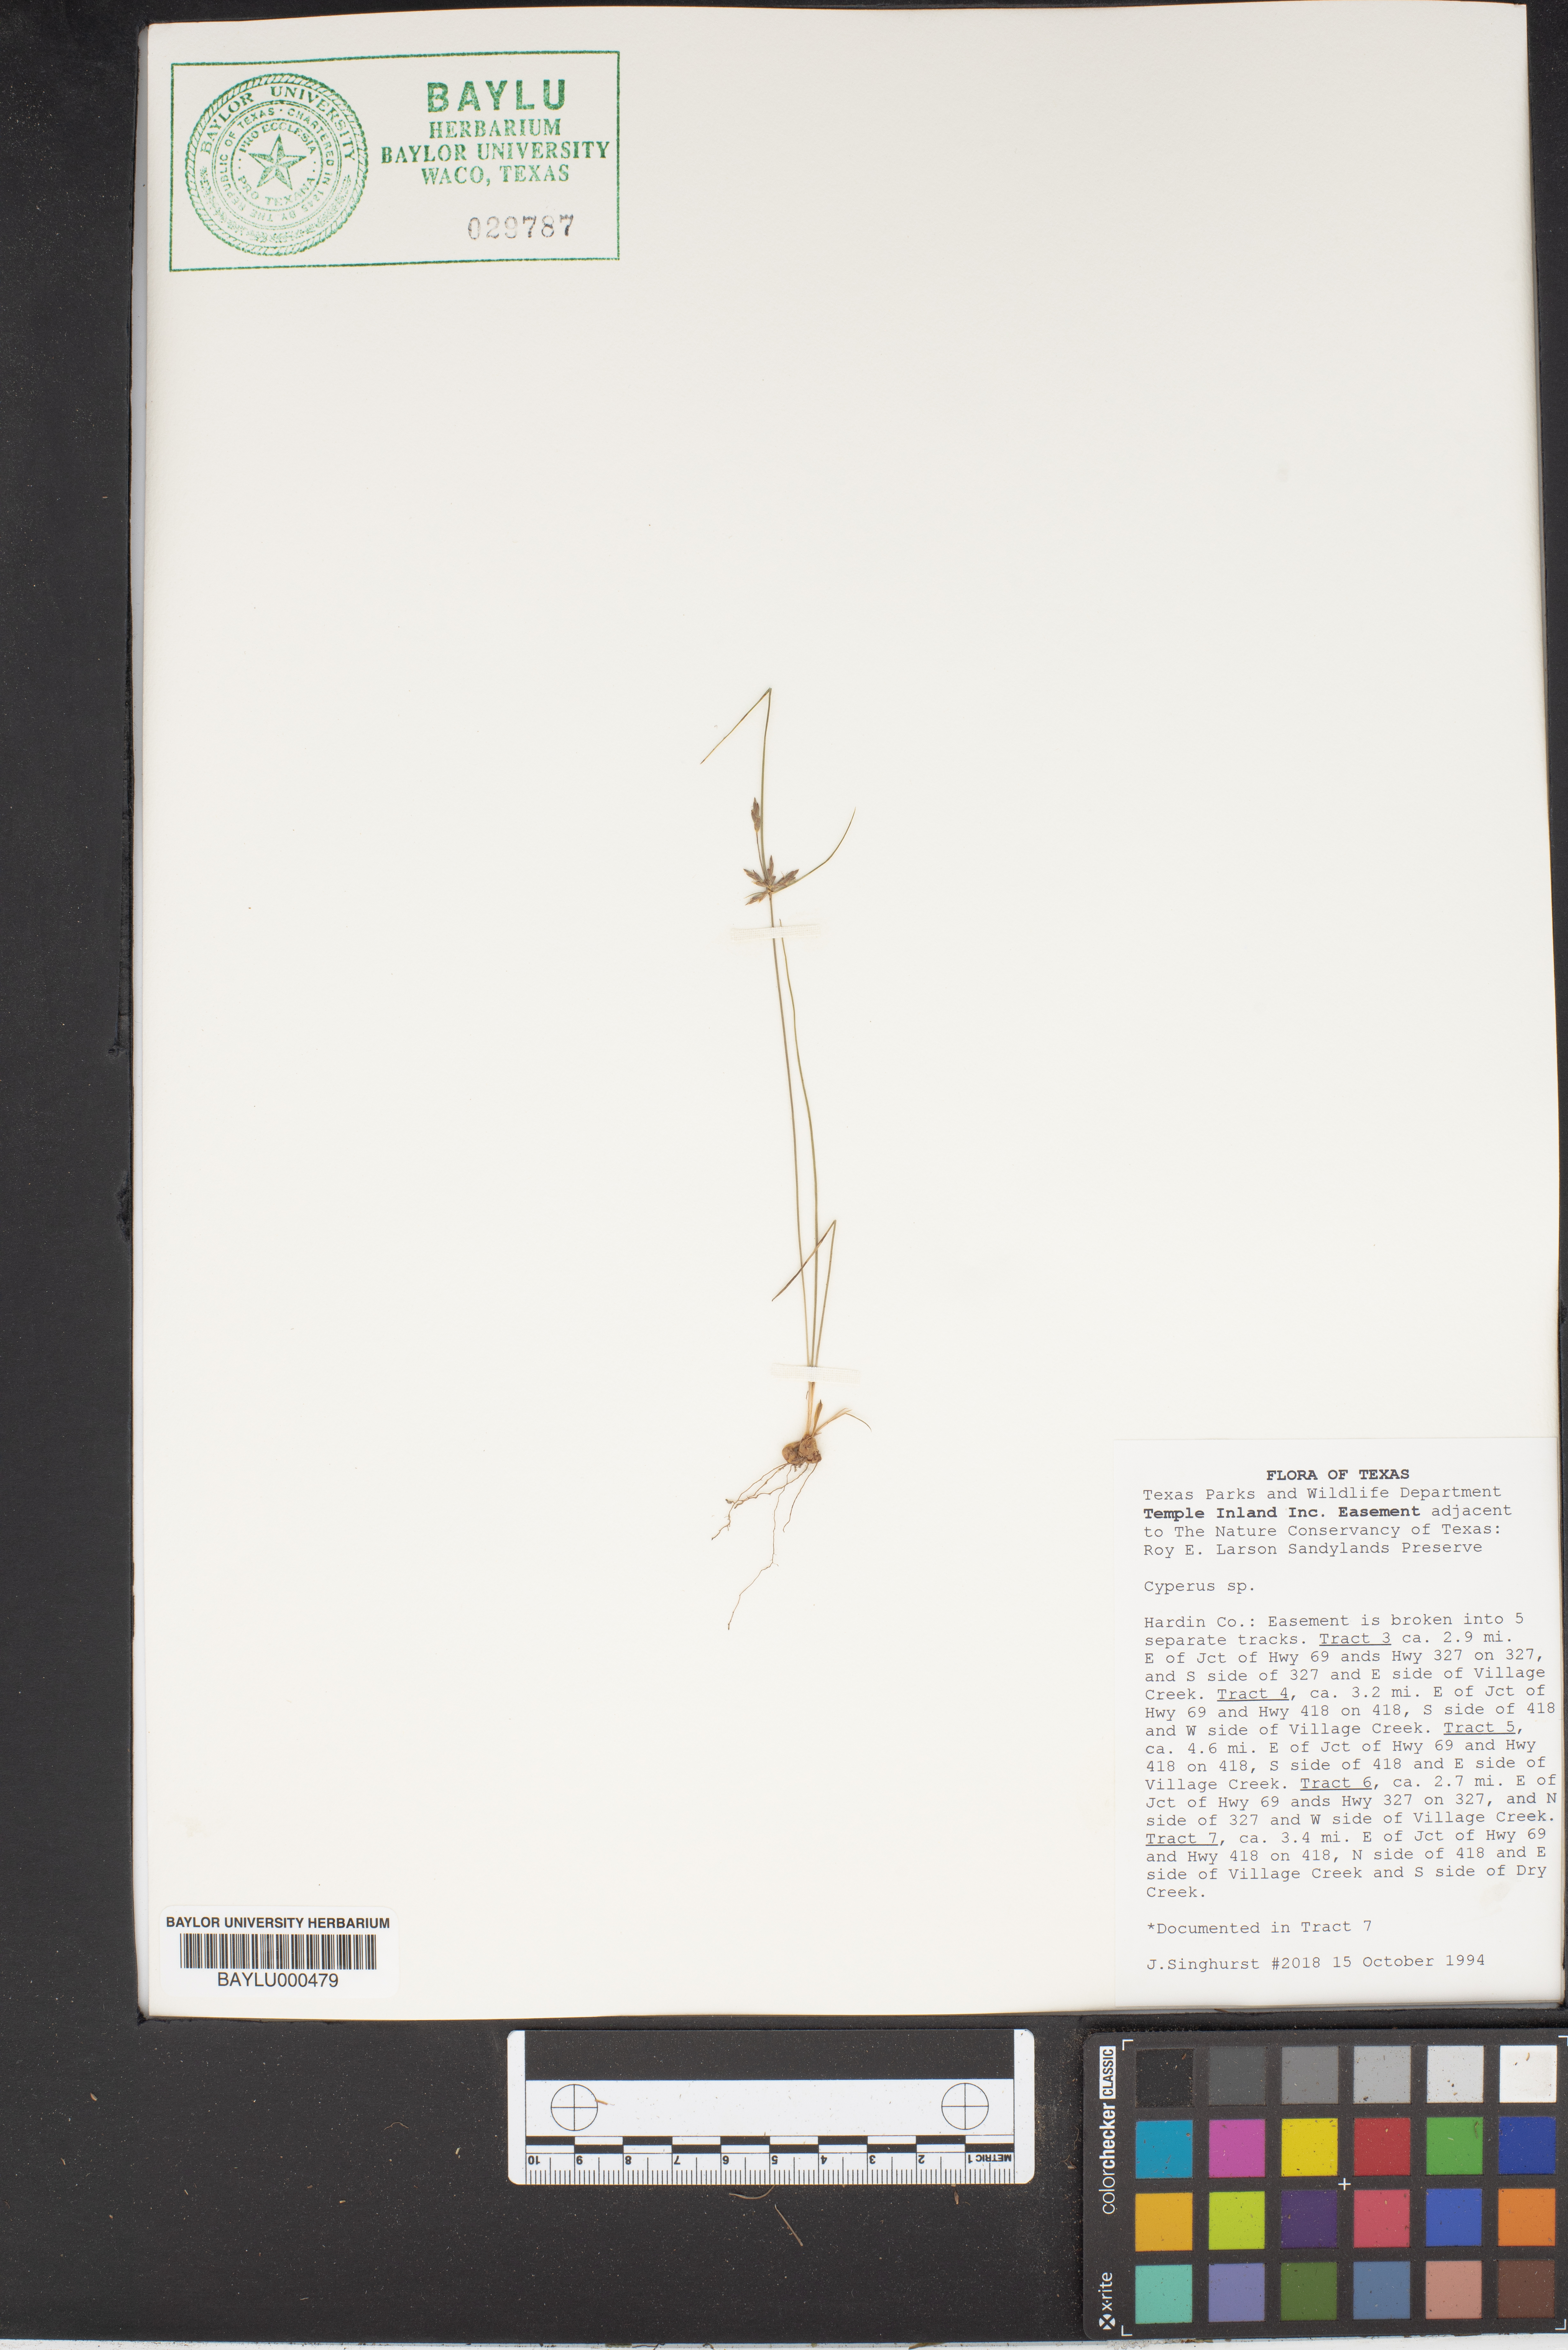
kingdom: Plantae
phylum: Tracheophyta
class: Liliopsida
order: Poales
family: Cyperaceae
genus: Cyperus
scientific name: Cyperus
